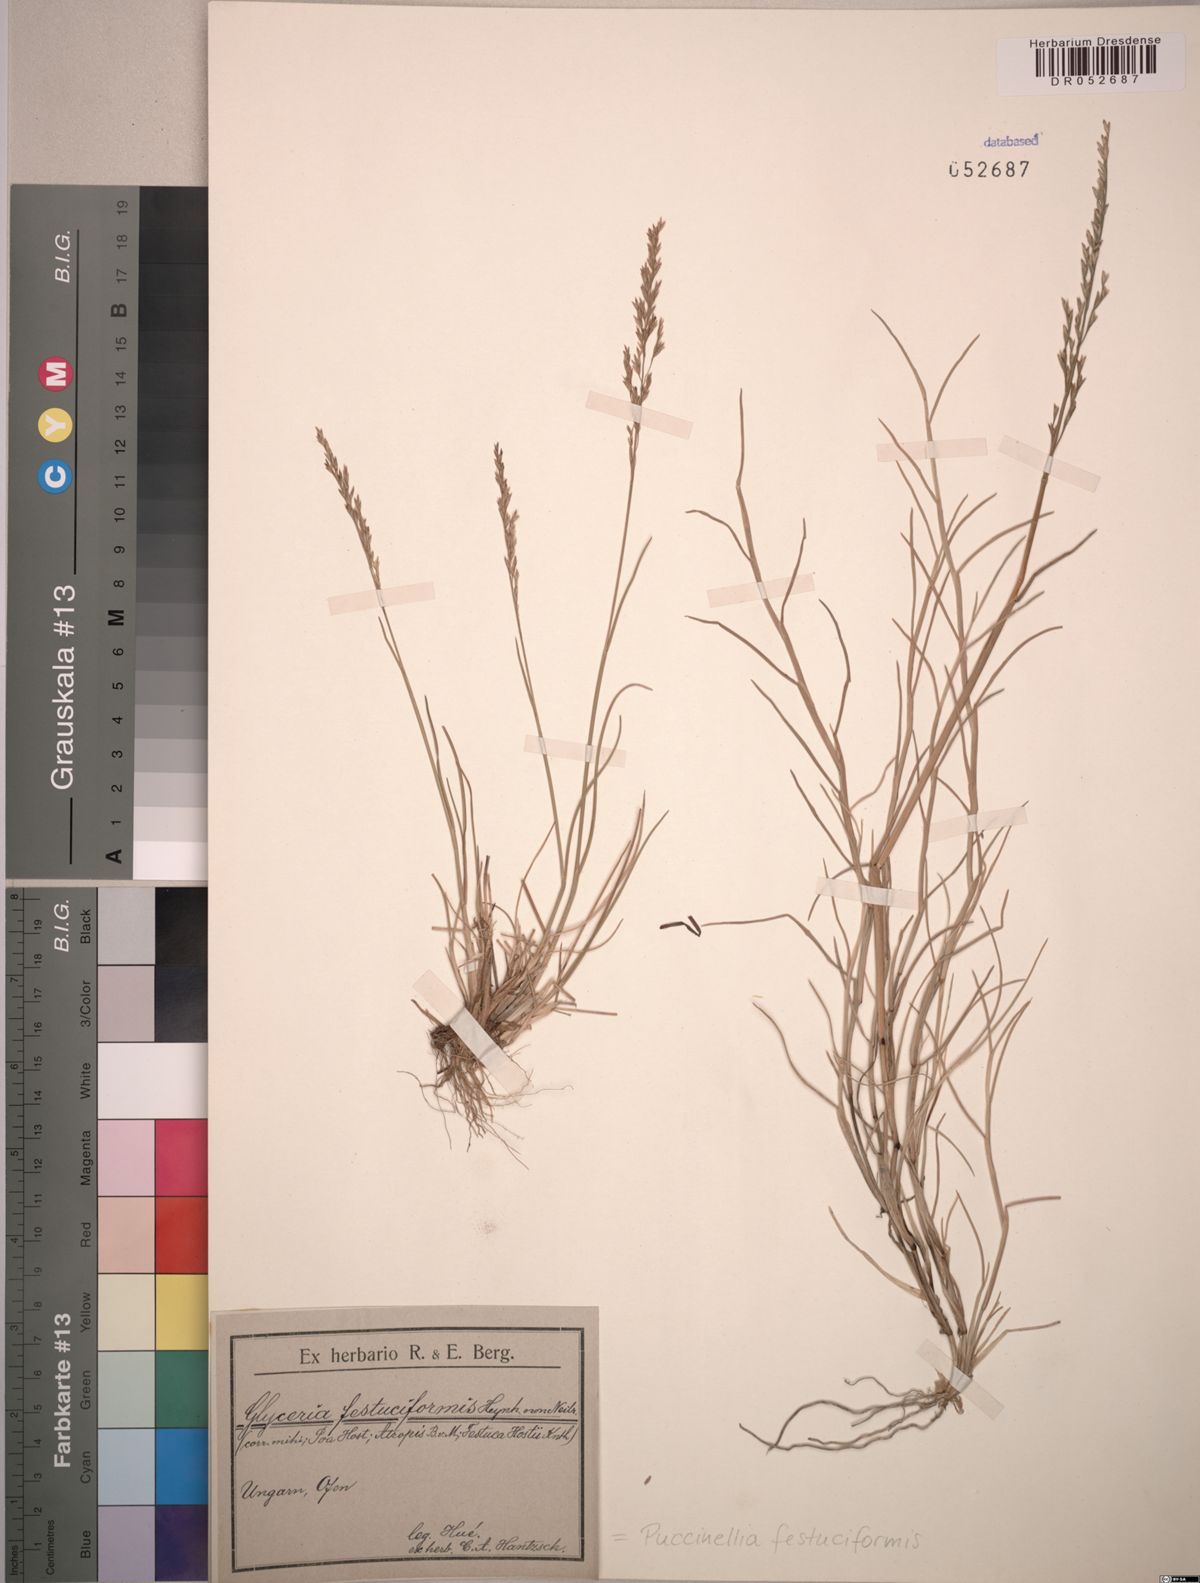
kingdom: Plantae
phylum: Tracheophyta
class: Liliopsida
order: Poales
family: Poaceae
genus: Puccinellia
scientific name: Puccinellia festuciformis
